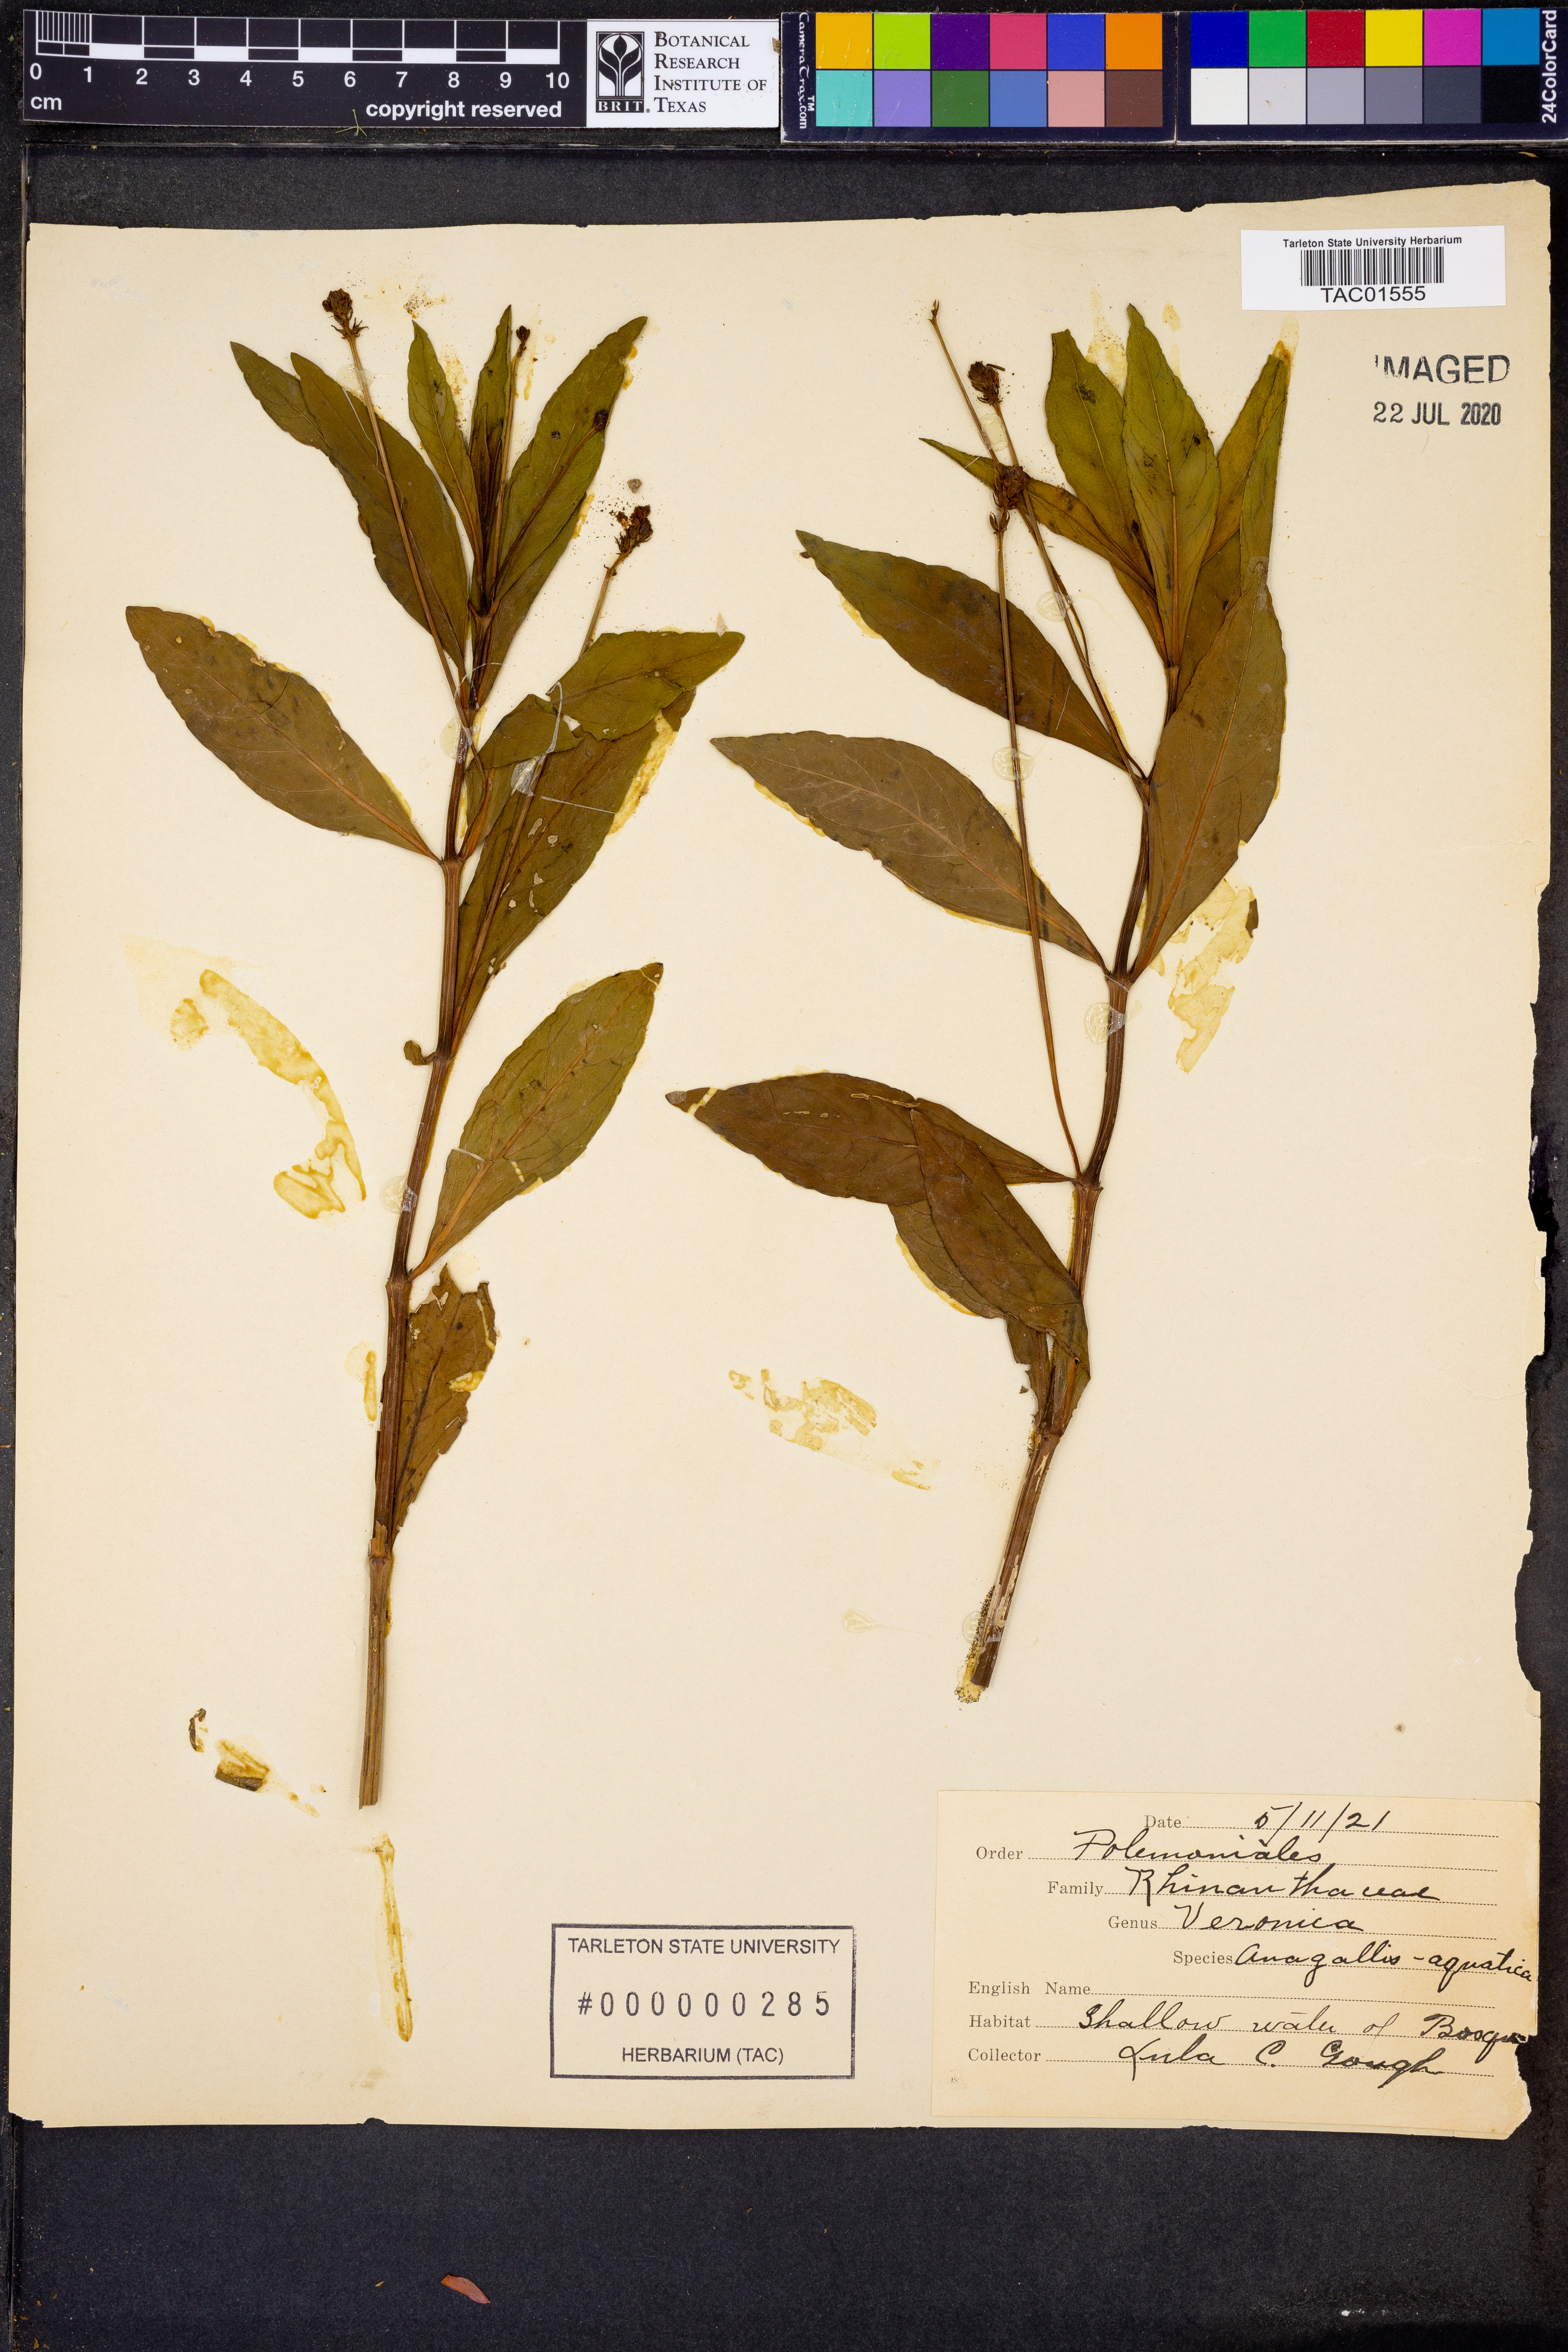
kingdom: Plantae
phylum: Tracheophyta
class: Magnoliopsida
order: Lamiales
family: Plantaginaceae
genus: Veronica
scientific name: Veronica anagallis-aquatica
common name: Water speedwell
